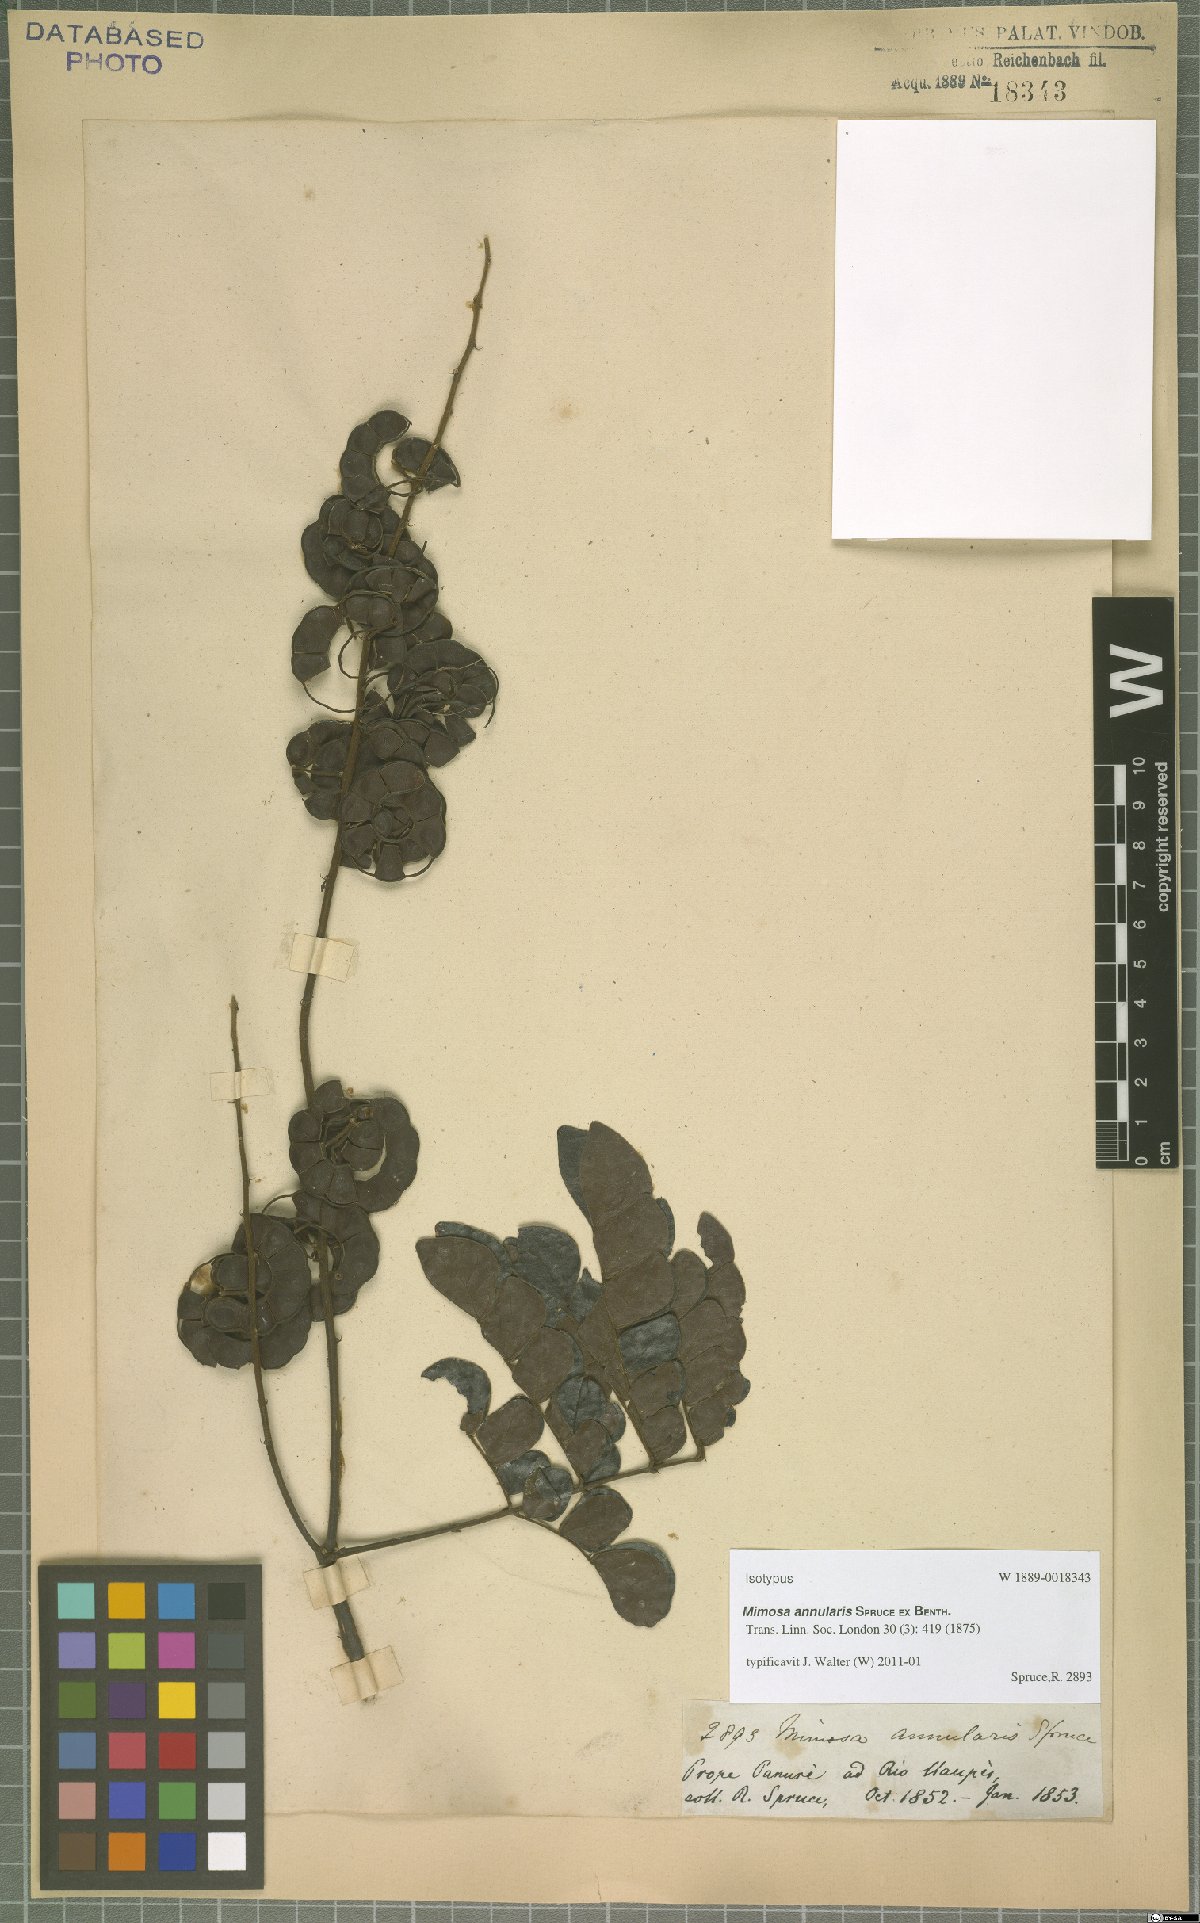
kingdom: Plantae
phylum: Tracheophyta
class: Magnoliopsida
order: Fabales
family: Fabaceae
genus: Mimosa
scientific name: Mimosa annularis
